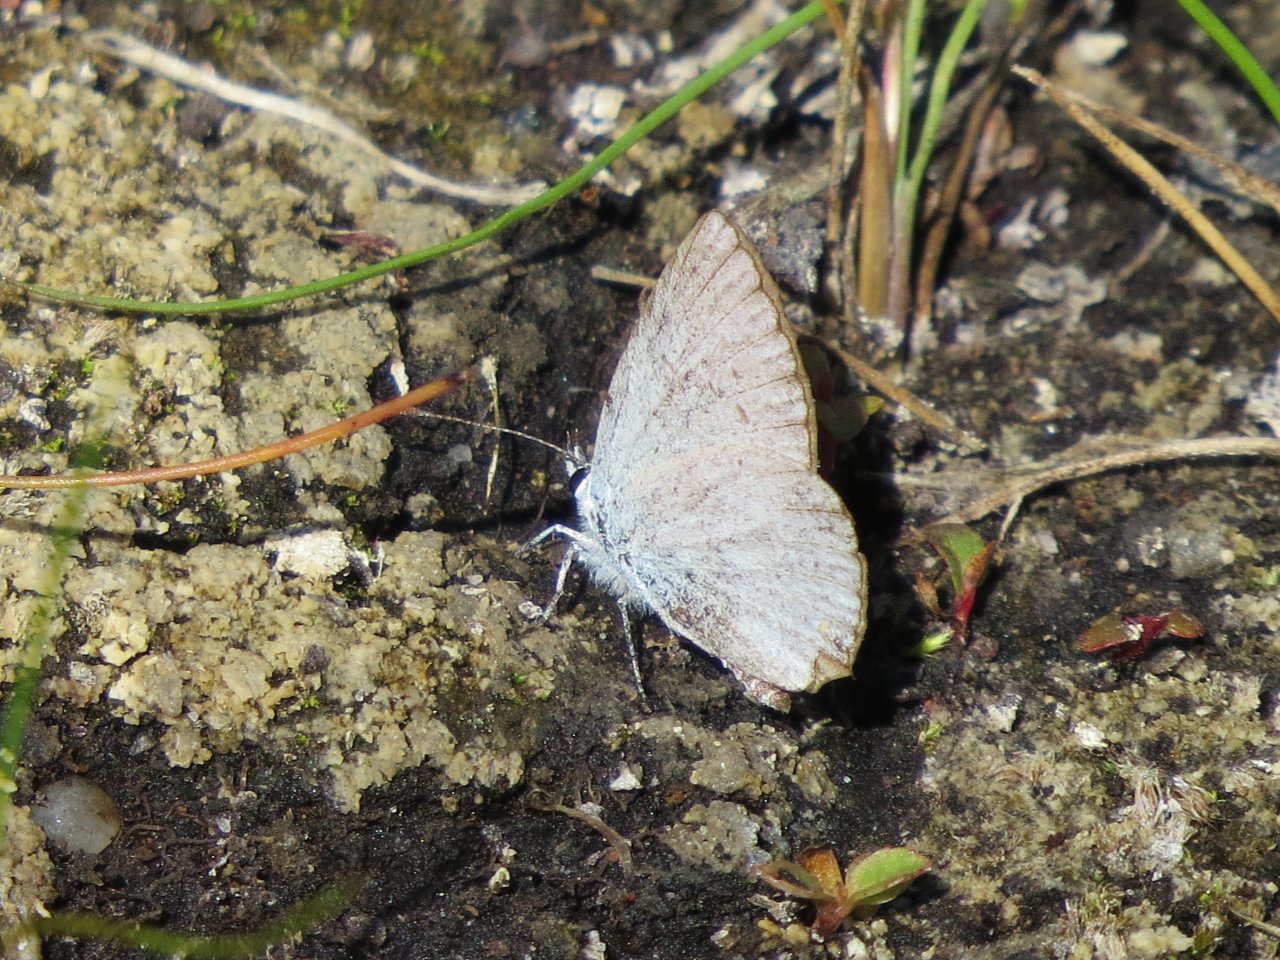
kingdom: Animalia
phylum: Arthropoda
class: Insecta
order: Lepidoptera
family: Lycaenidae
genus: Elkalyce
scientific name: Elkalyce amyntula
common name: Western Tailed-Blue
